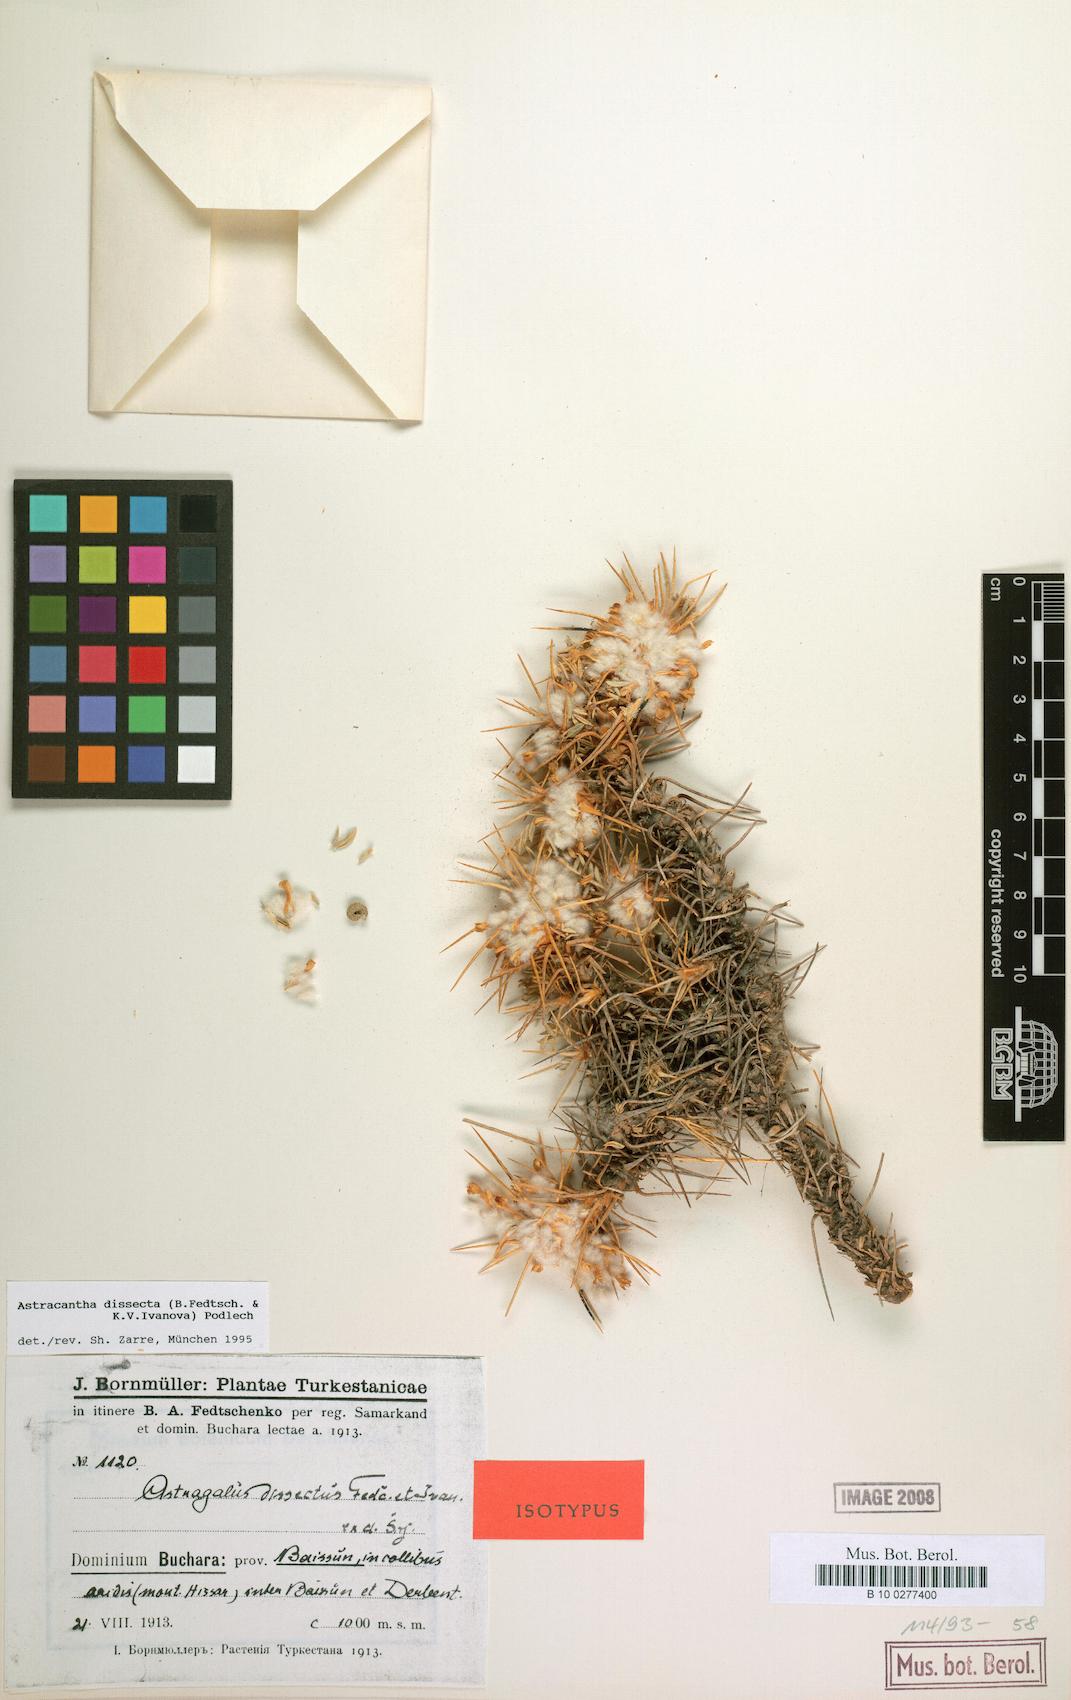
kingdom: Plantae
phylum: Tracheophyta
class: Magnoliopsida
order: Fabales
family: Fabaceae
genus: Astragalus
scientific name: Astragalus dissectus
